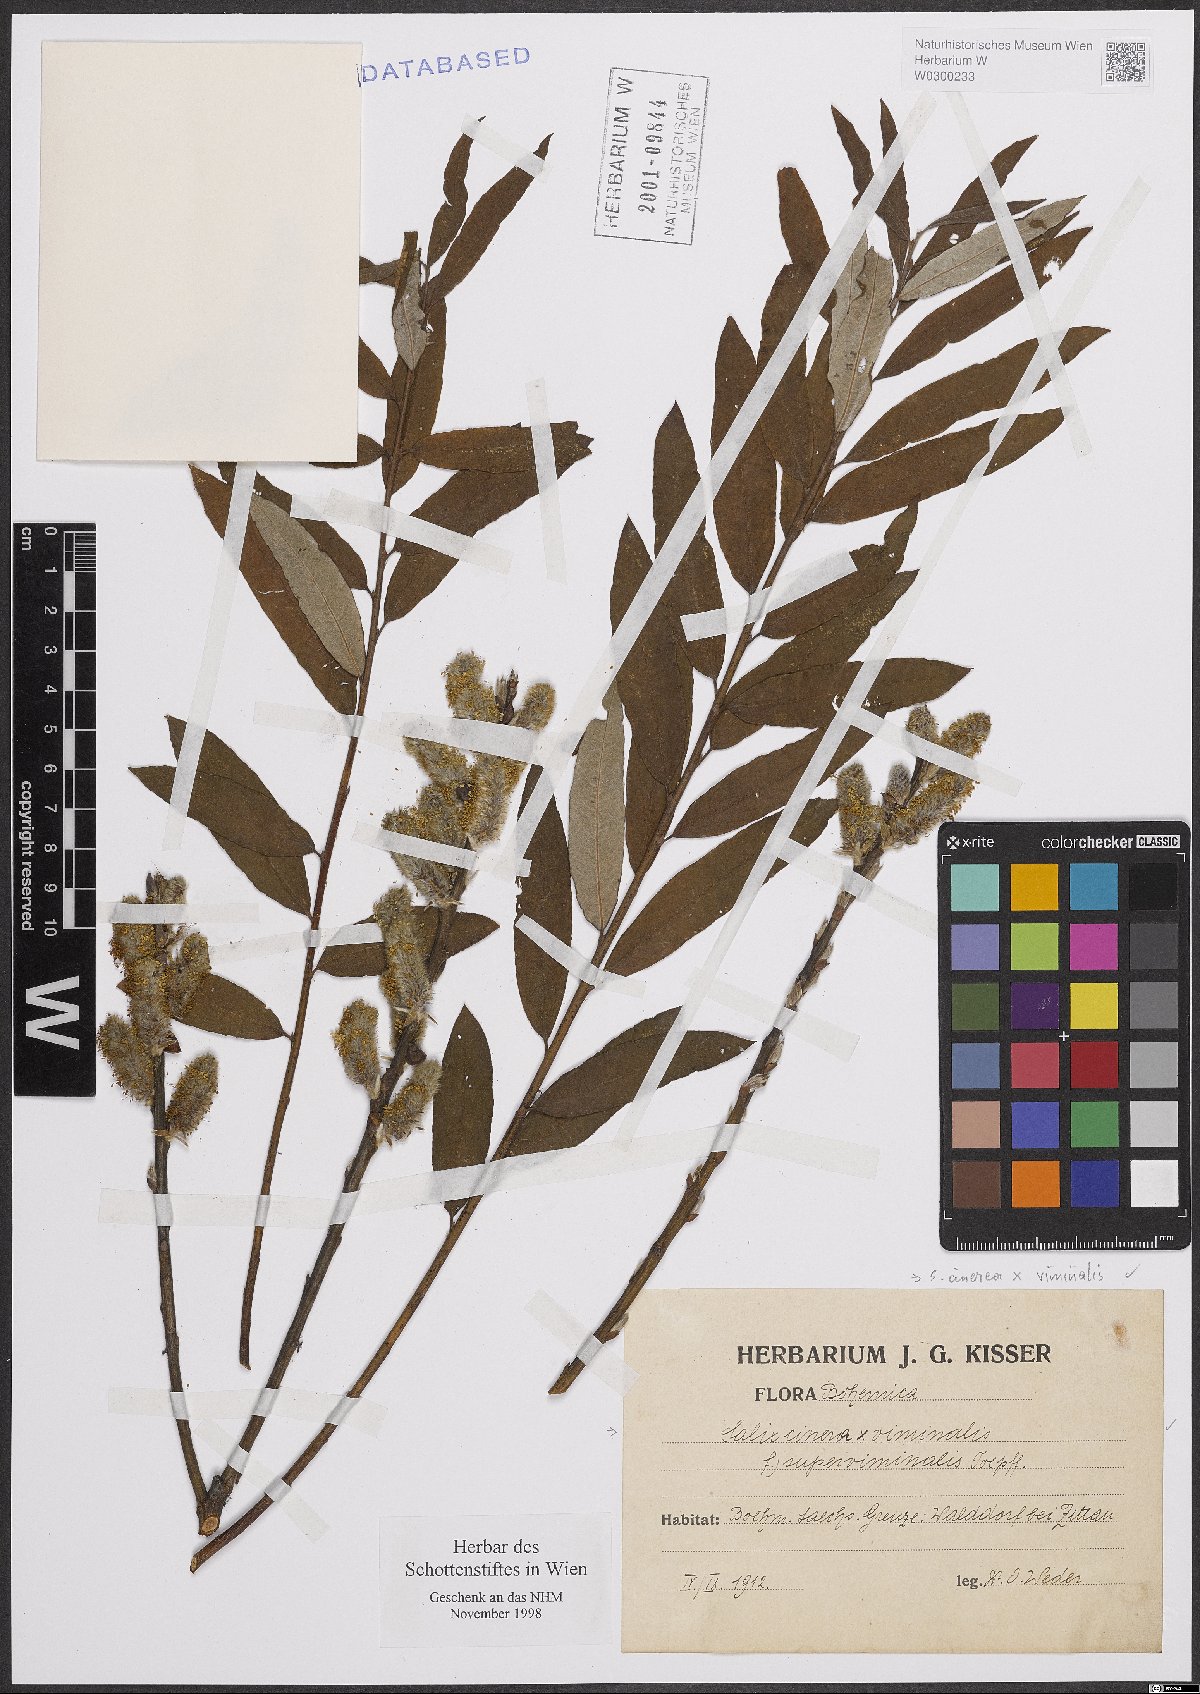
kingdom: Plantae
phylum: Tracheophyta
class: Magnoliopsida
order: Malpighiales
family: Salicaceae
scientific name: Salicaceae
